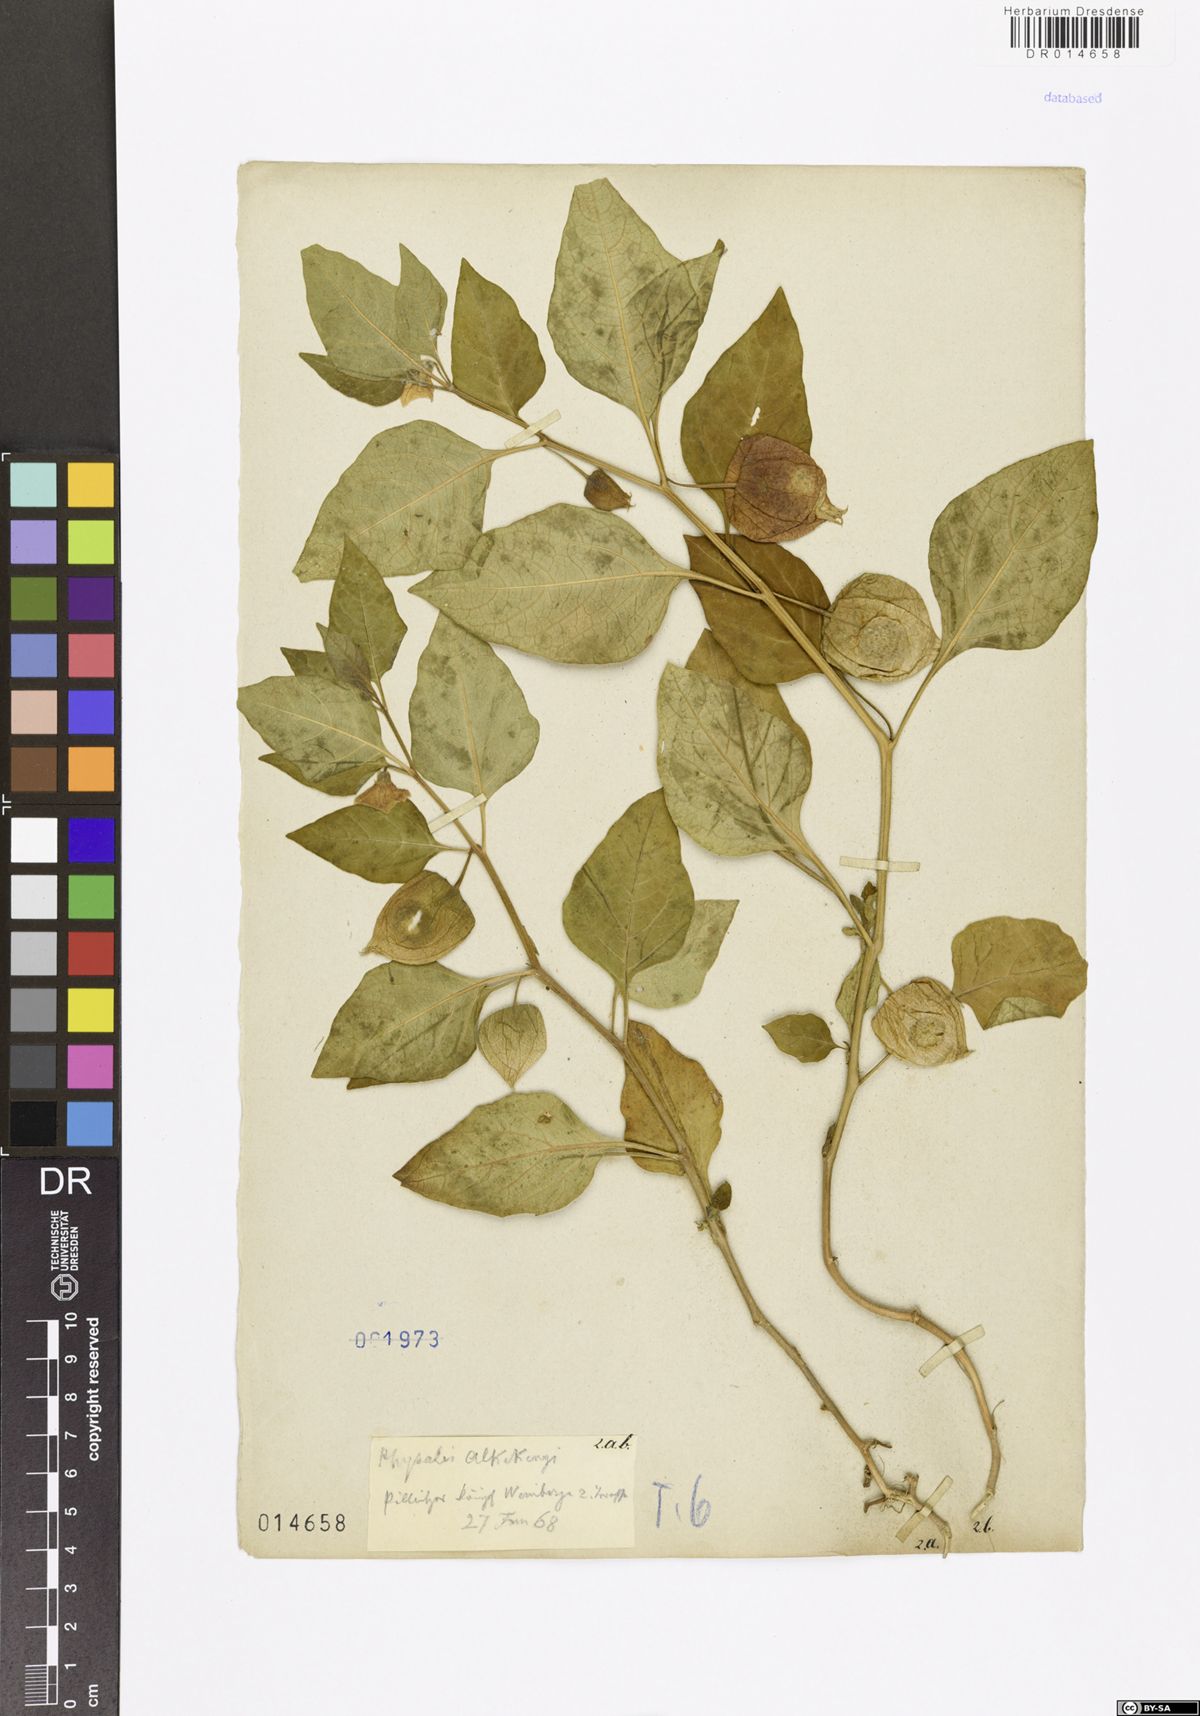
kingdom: Plantae
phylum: Tracheophyta
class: Magnoliopsida
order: Solanales
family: Solanaceae
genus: Alkekengi
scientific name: Alkekengi officinarum
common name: Japanese-lantern
